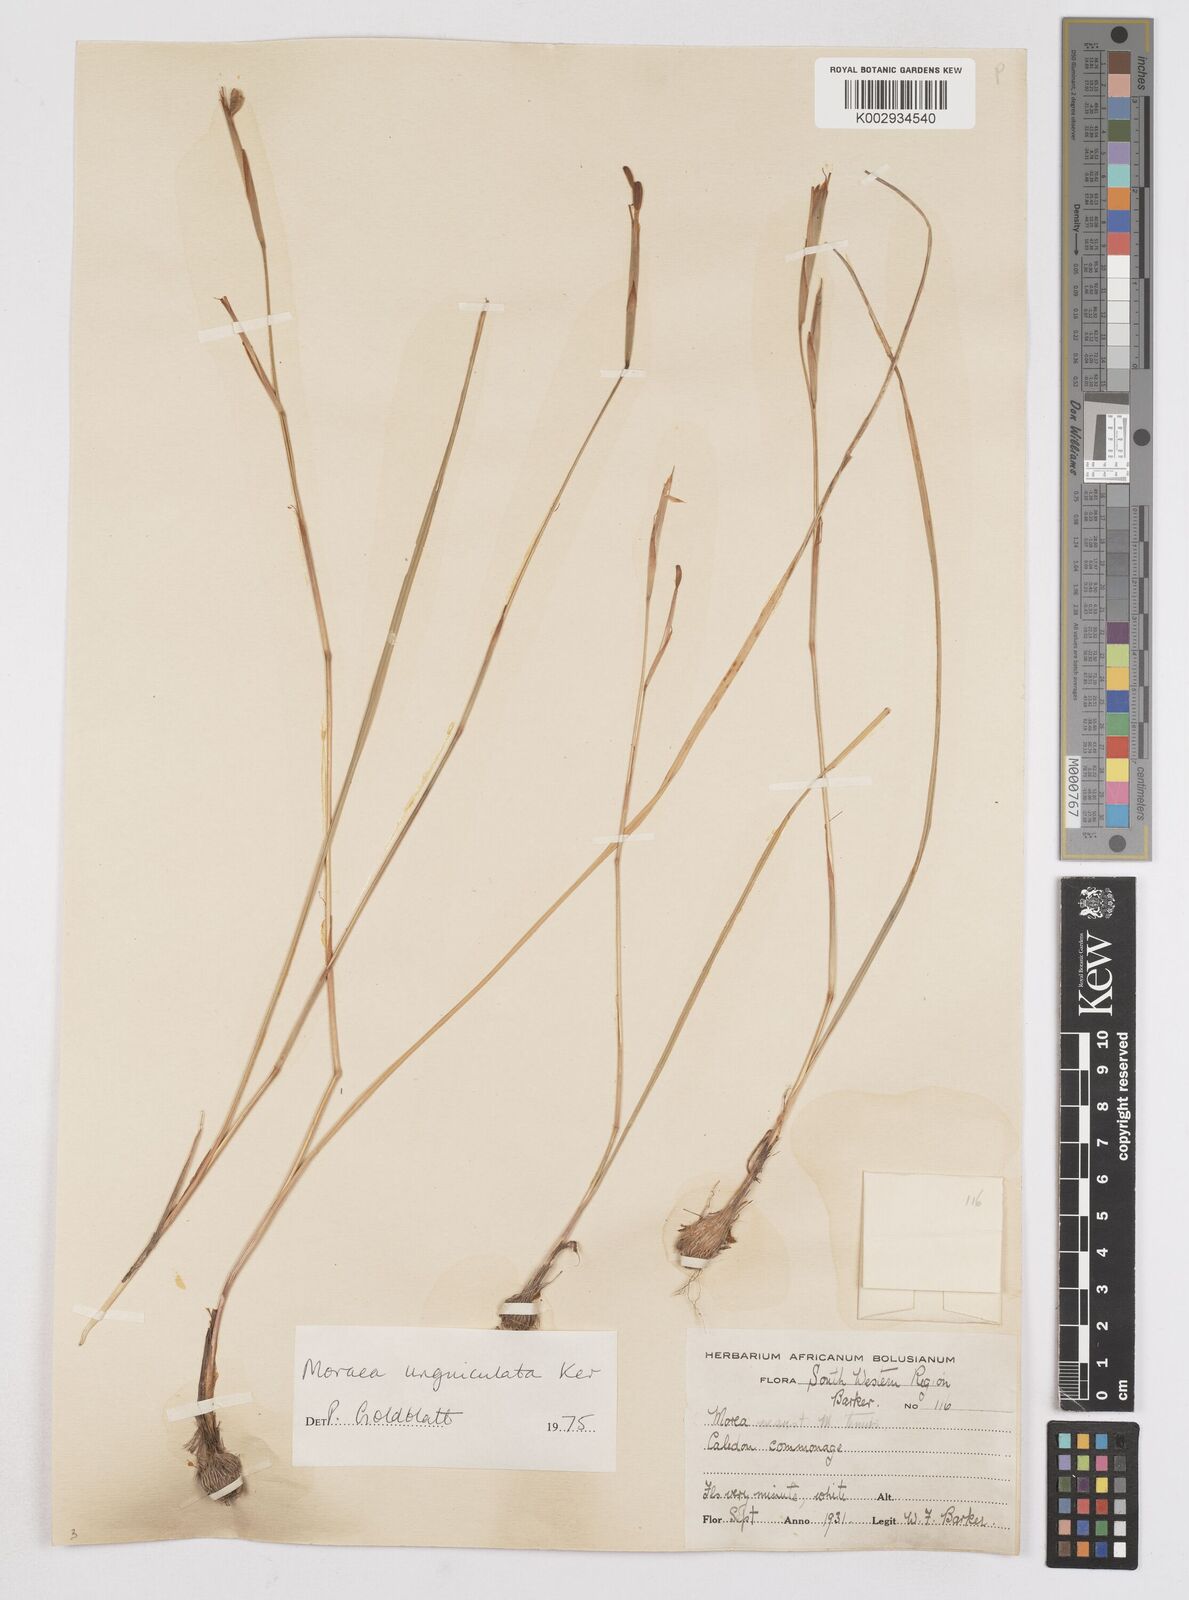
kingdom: Plantae
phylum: Tracheophyta
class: Liliopsida
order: Asparagales
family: Iridaceae
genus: Moraea
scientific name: Moraea unguiculata
